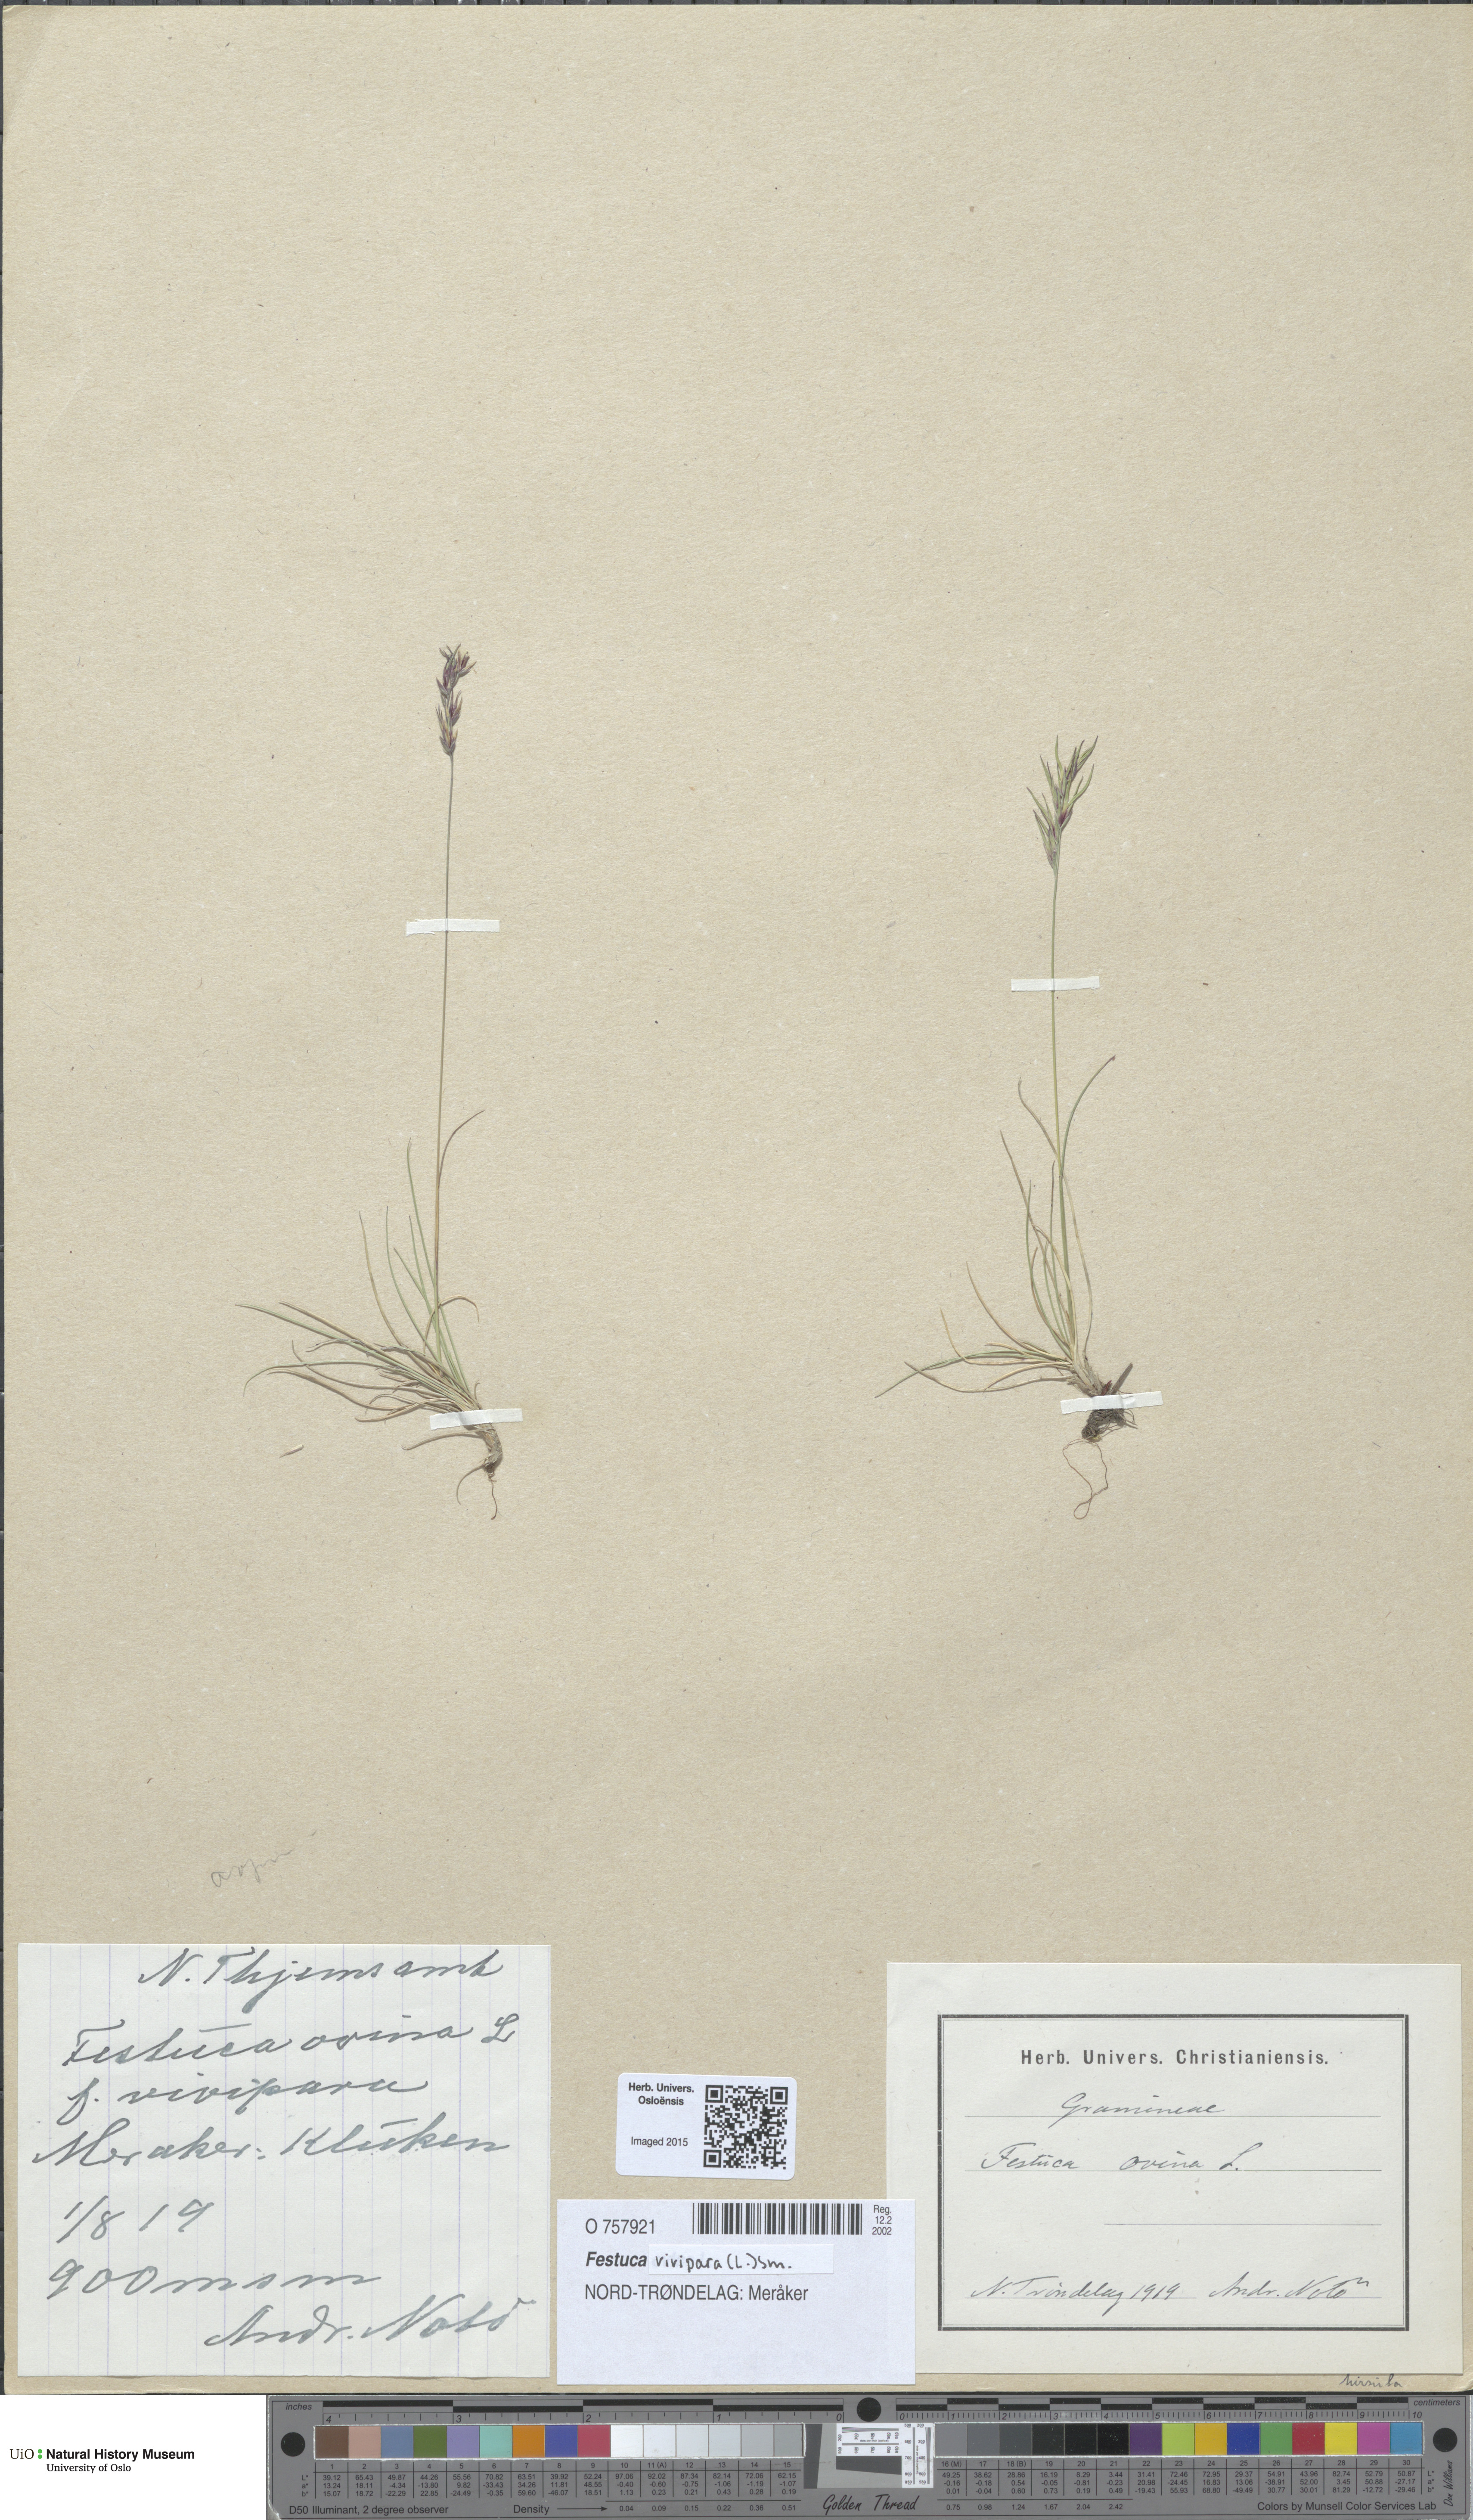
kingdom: Plantae
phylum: Tracheophyta
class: Liliopsida
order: Poales
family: Poaceae
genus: Festuca
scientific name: Festuca vivipara
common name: Viviparous sheep's-fescue
